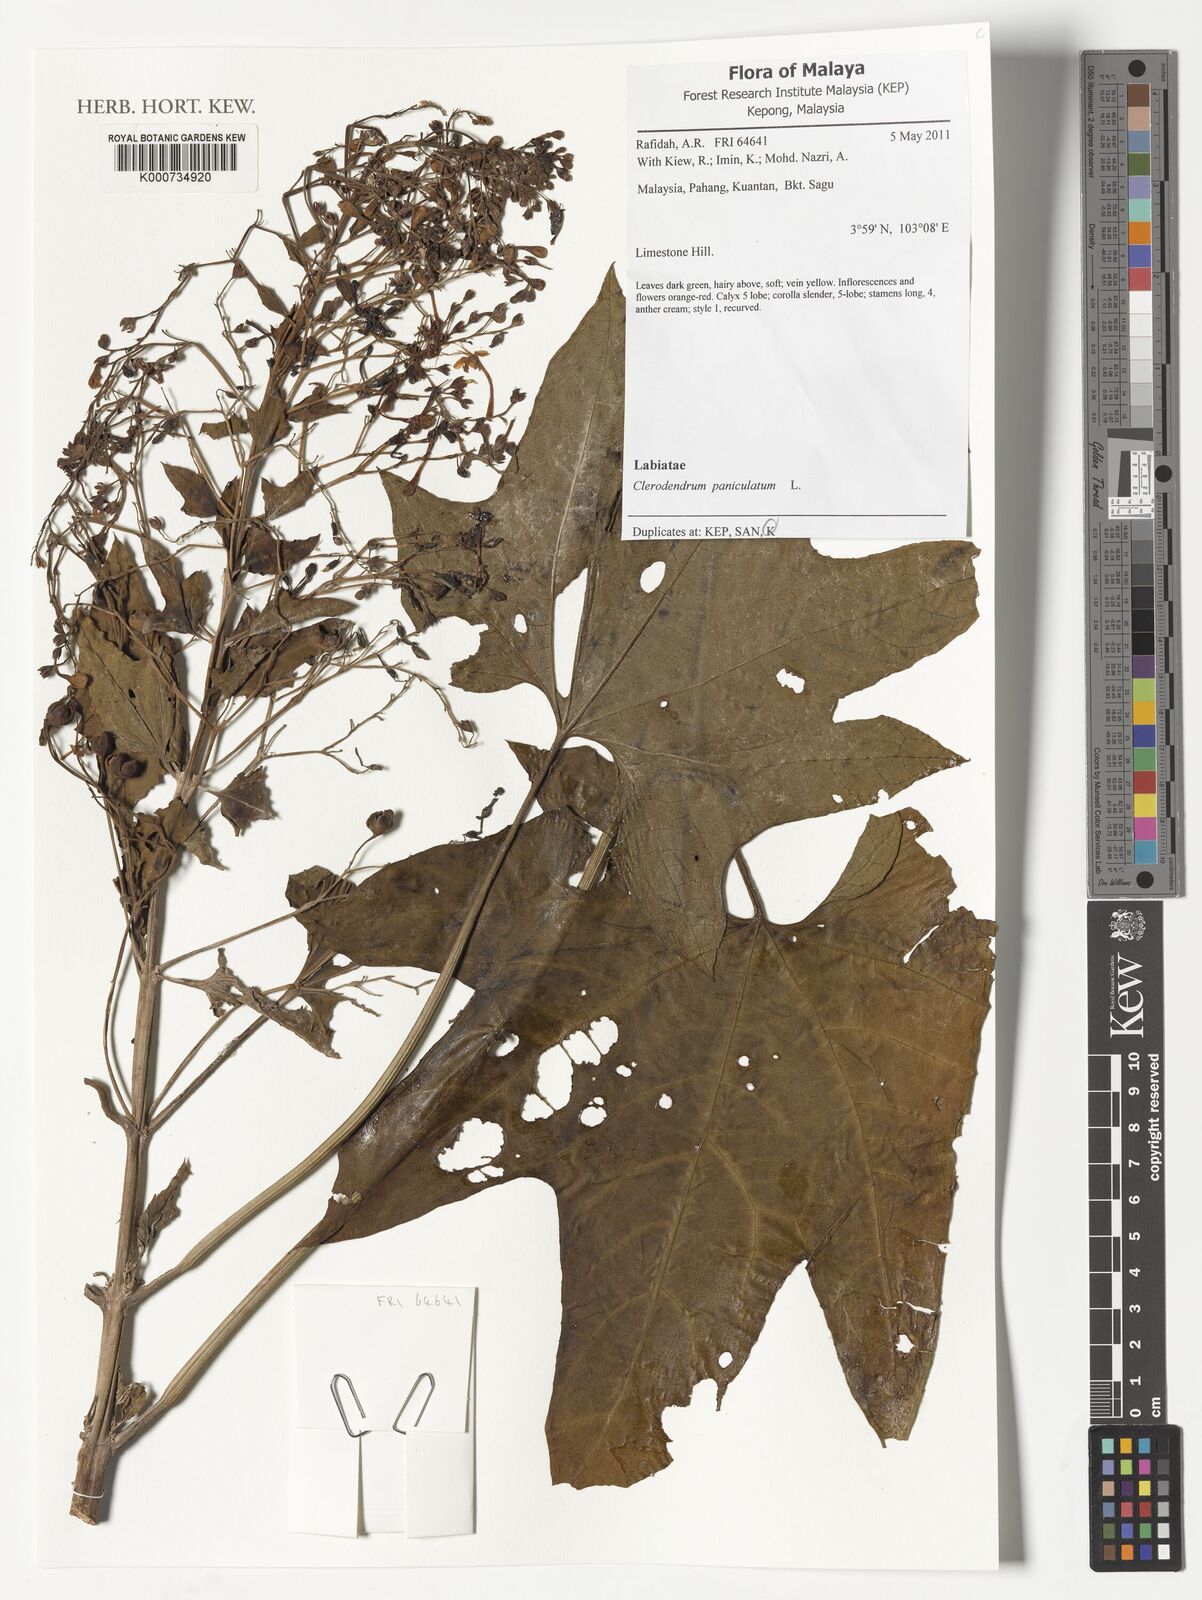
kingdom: Plantae
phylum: Tracheophyta
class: Magnoliopsida
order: Lamiales
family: Lamiaceae
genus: Clerodendrum
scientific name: Clerodendrum paniculatum
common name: Pagoda-flower
